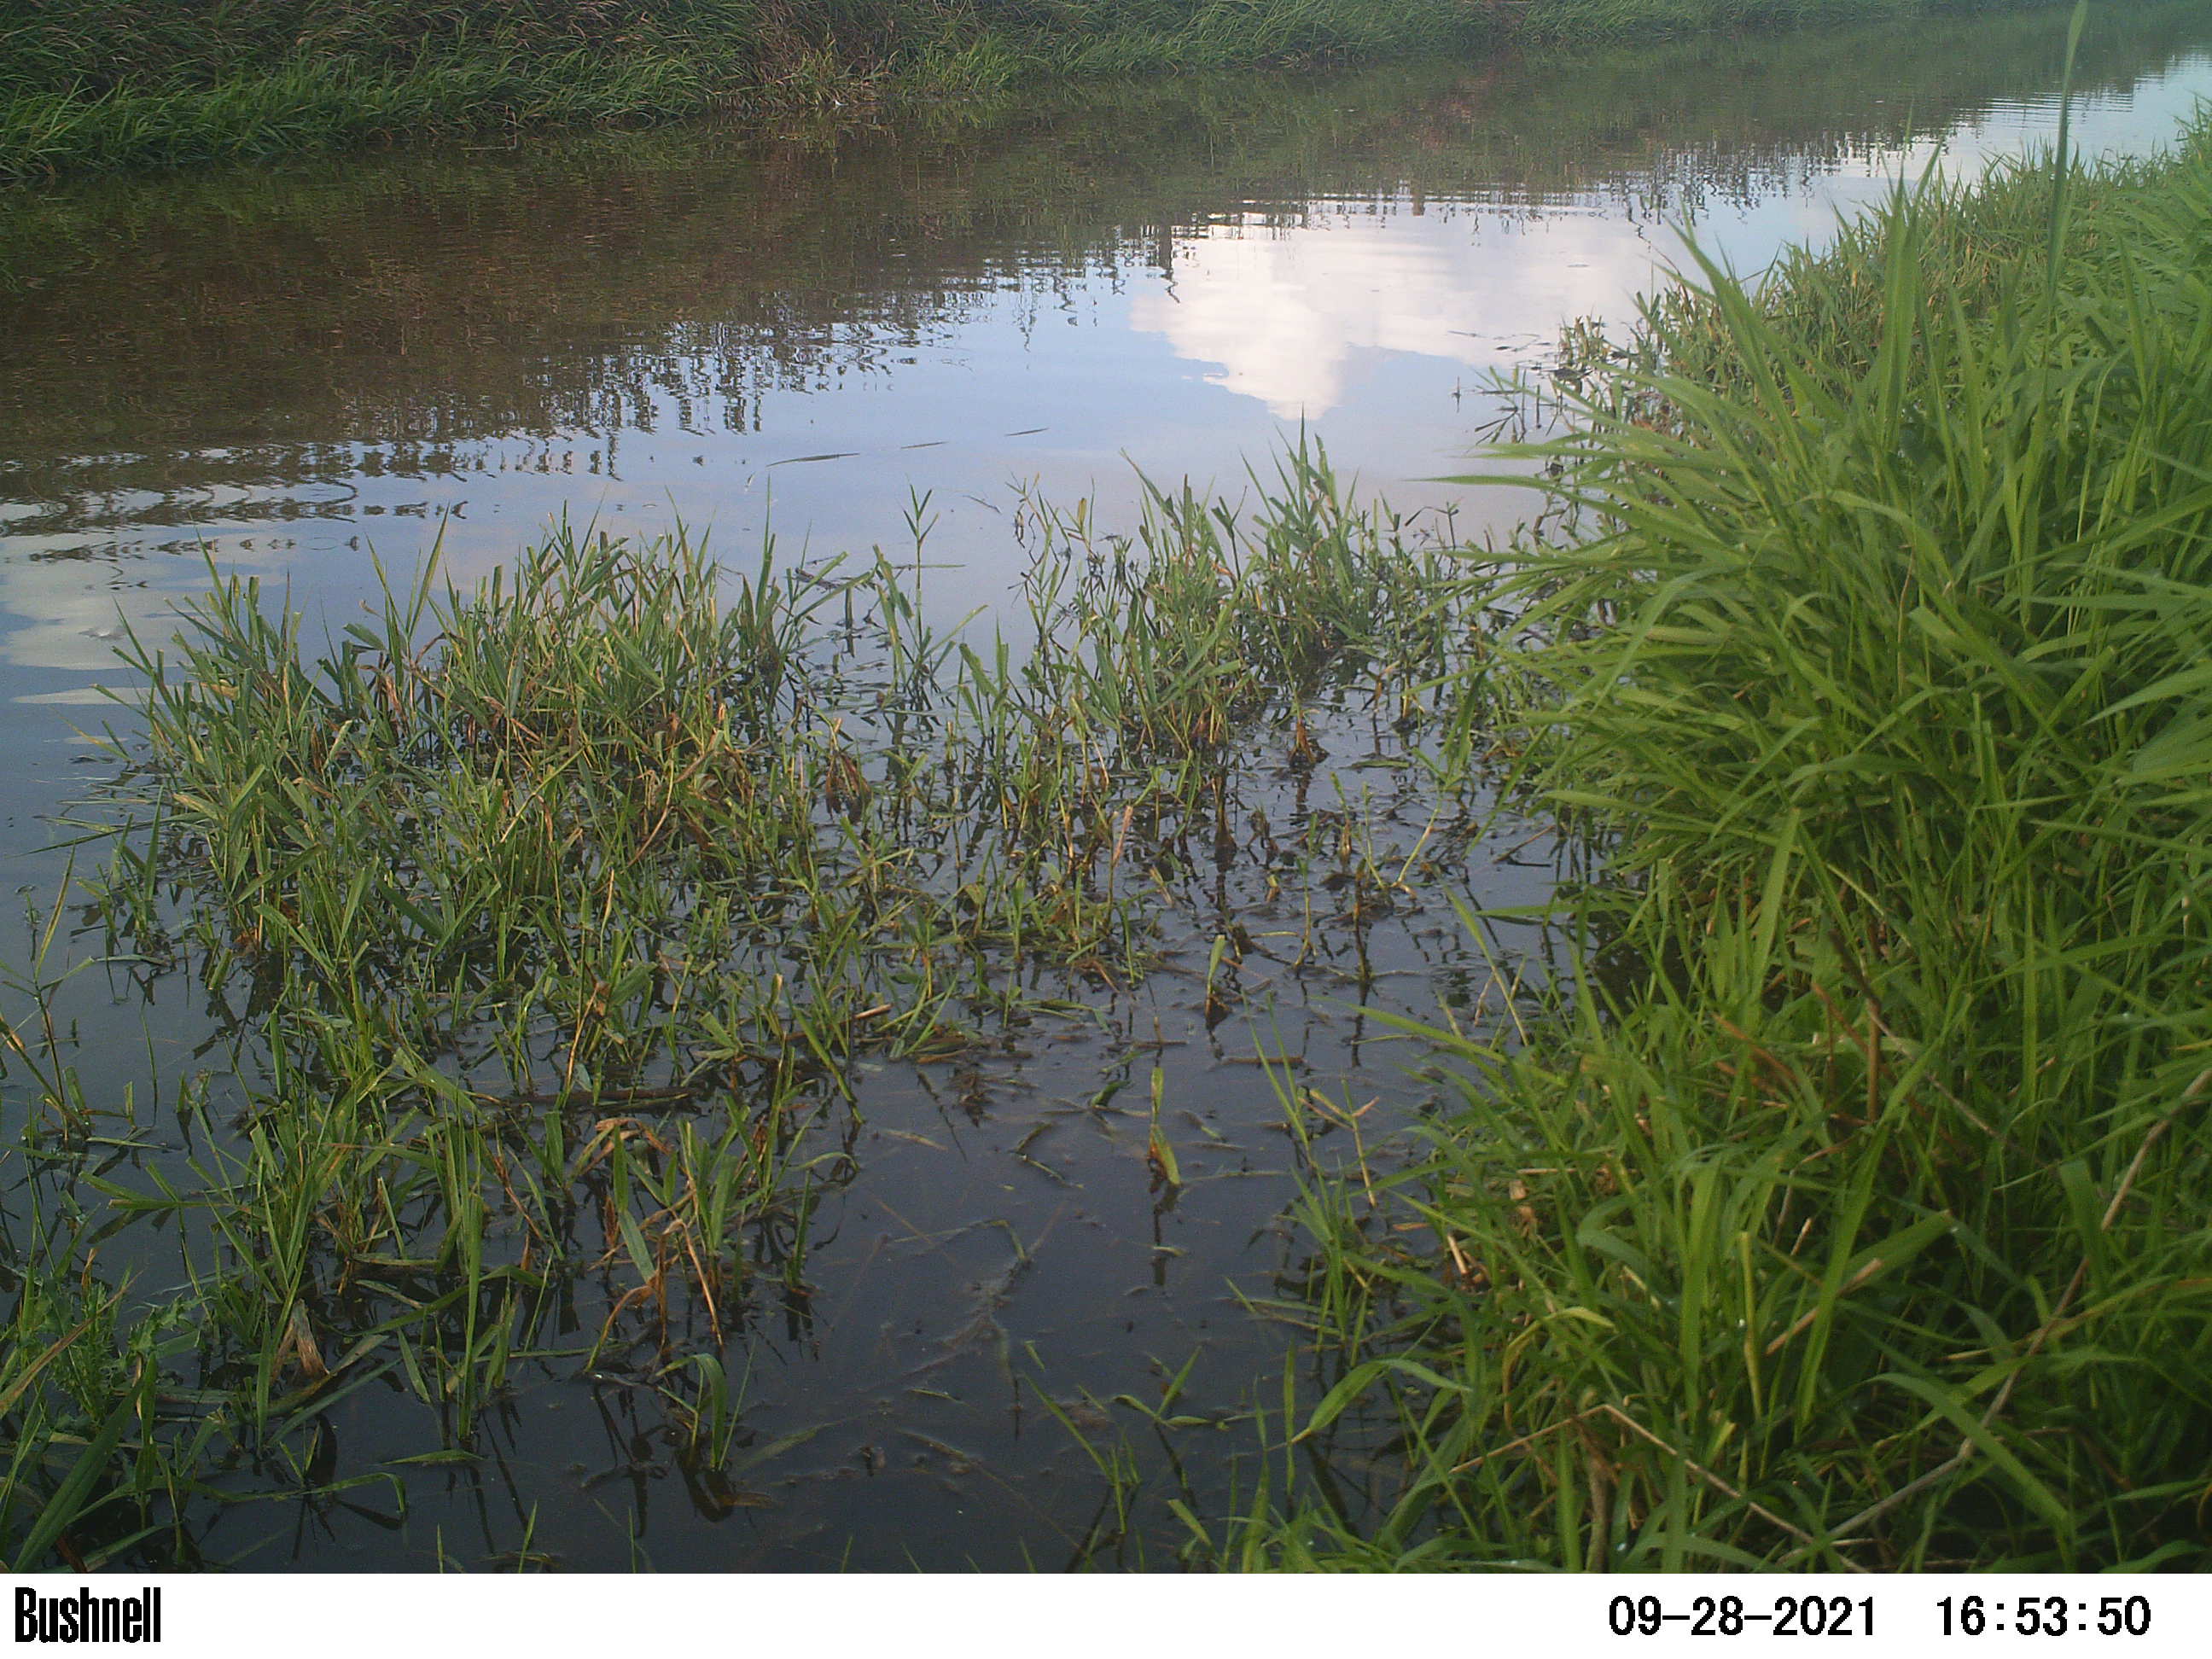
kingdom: Animalia
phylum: Chordata
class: Aves
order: Gruiformes
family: Rallidae
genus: Fulica
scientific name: Fulica atra
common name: Eurasian coot
